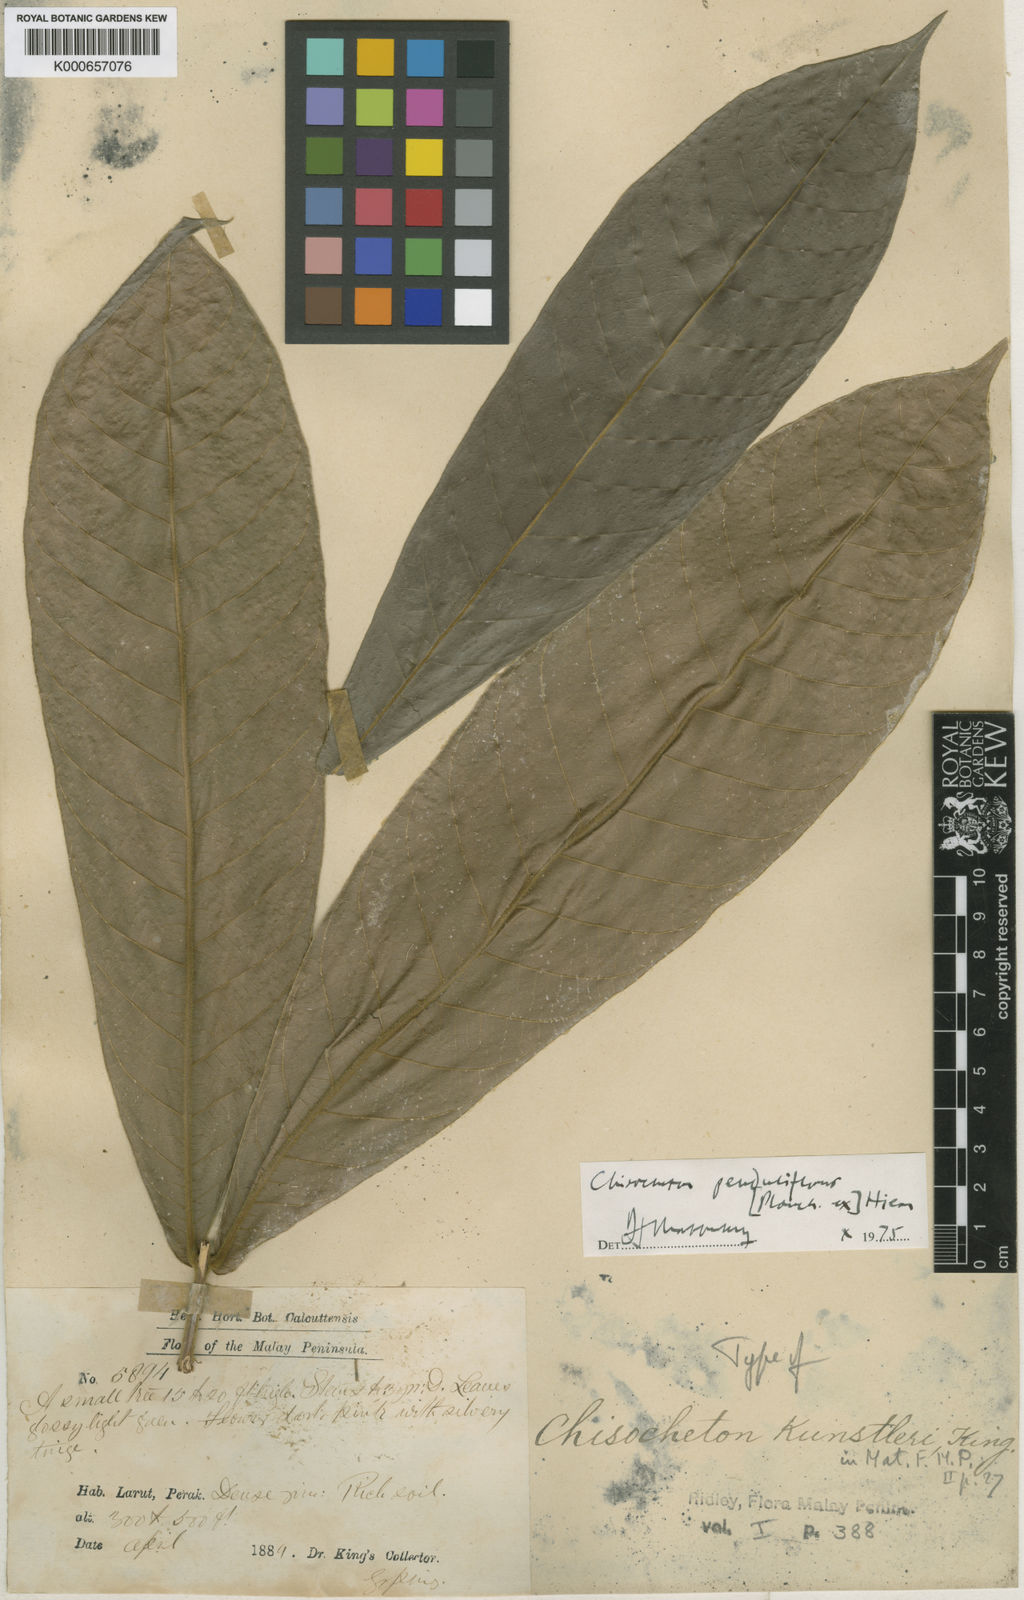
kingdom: Plantae
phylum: Tracheophyta
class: Magnoliopsida
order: Sapindales
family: Meliaceae
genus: Chisocheton
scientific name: Chisocheton penduliflorus
